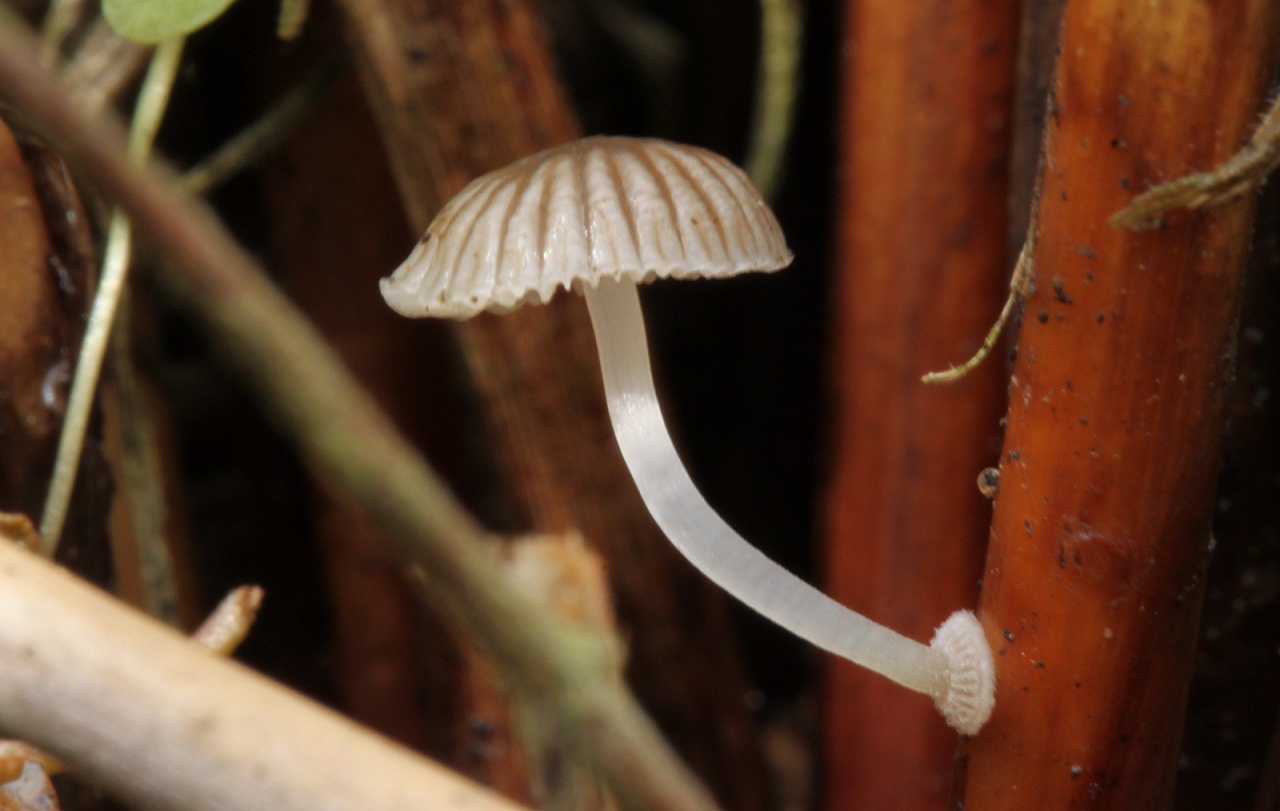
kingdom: Fungi
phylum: Basidiomycota
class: Agaricomycetes
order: Agaricales
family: Mycenaceae
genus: Mycena
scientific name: Mycena bulbosa
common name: siv-huesvamp
